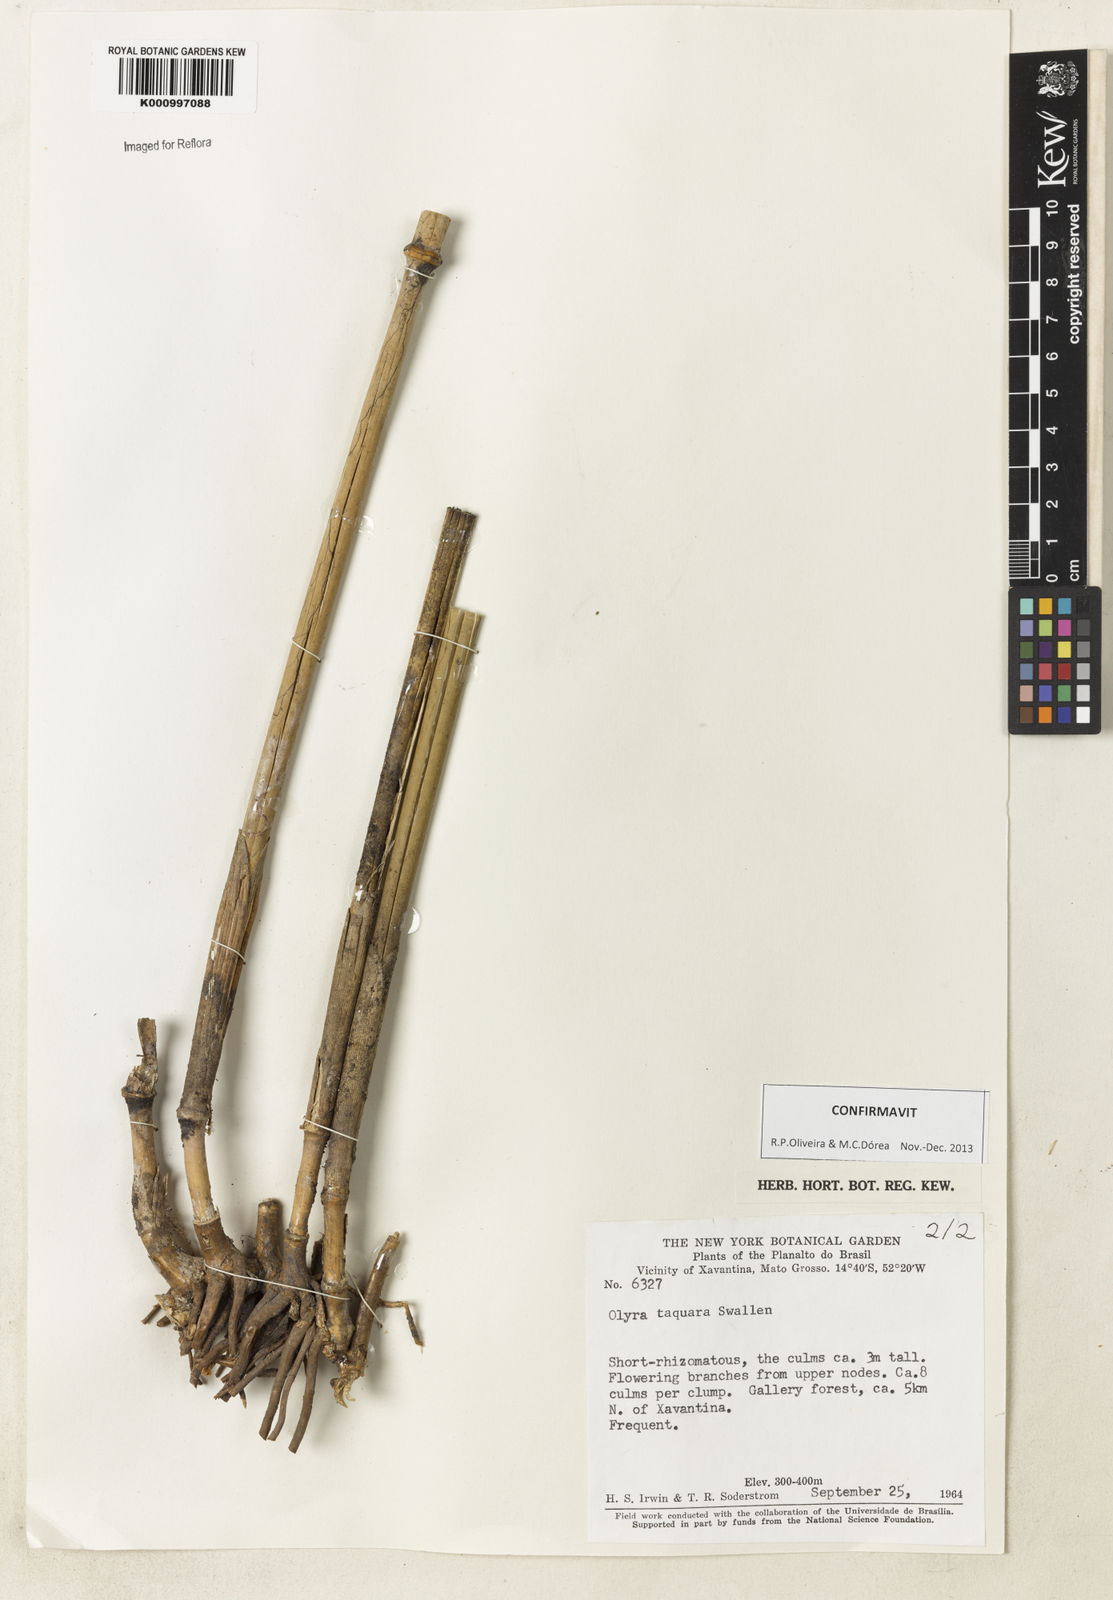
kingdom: Plantae
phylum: Tracheophyta
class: Liliopsida
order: Poales
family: Poaceae
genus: Olyra
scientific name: Olyra taquara
